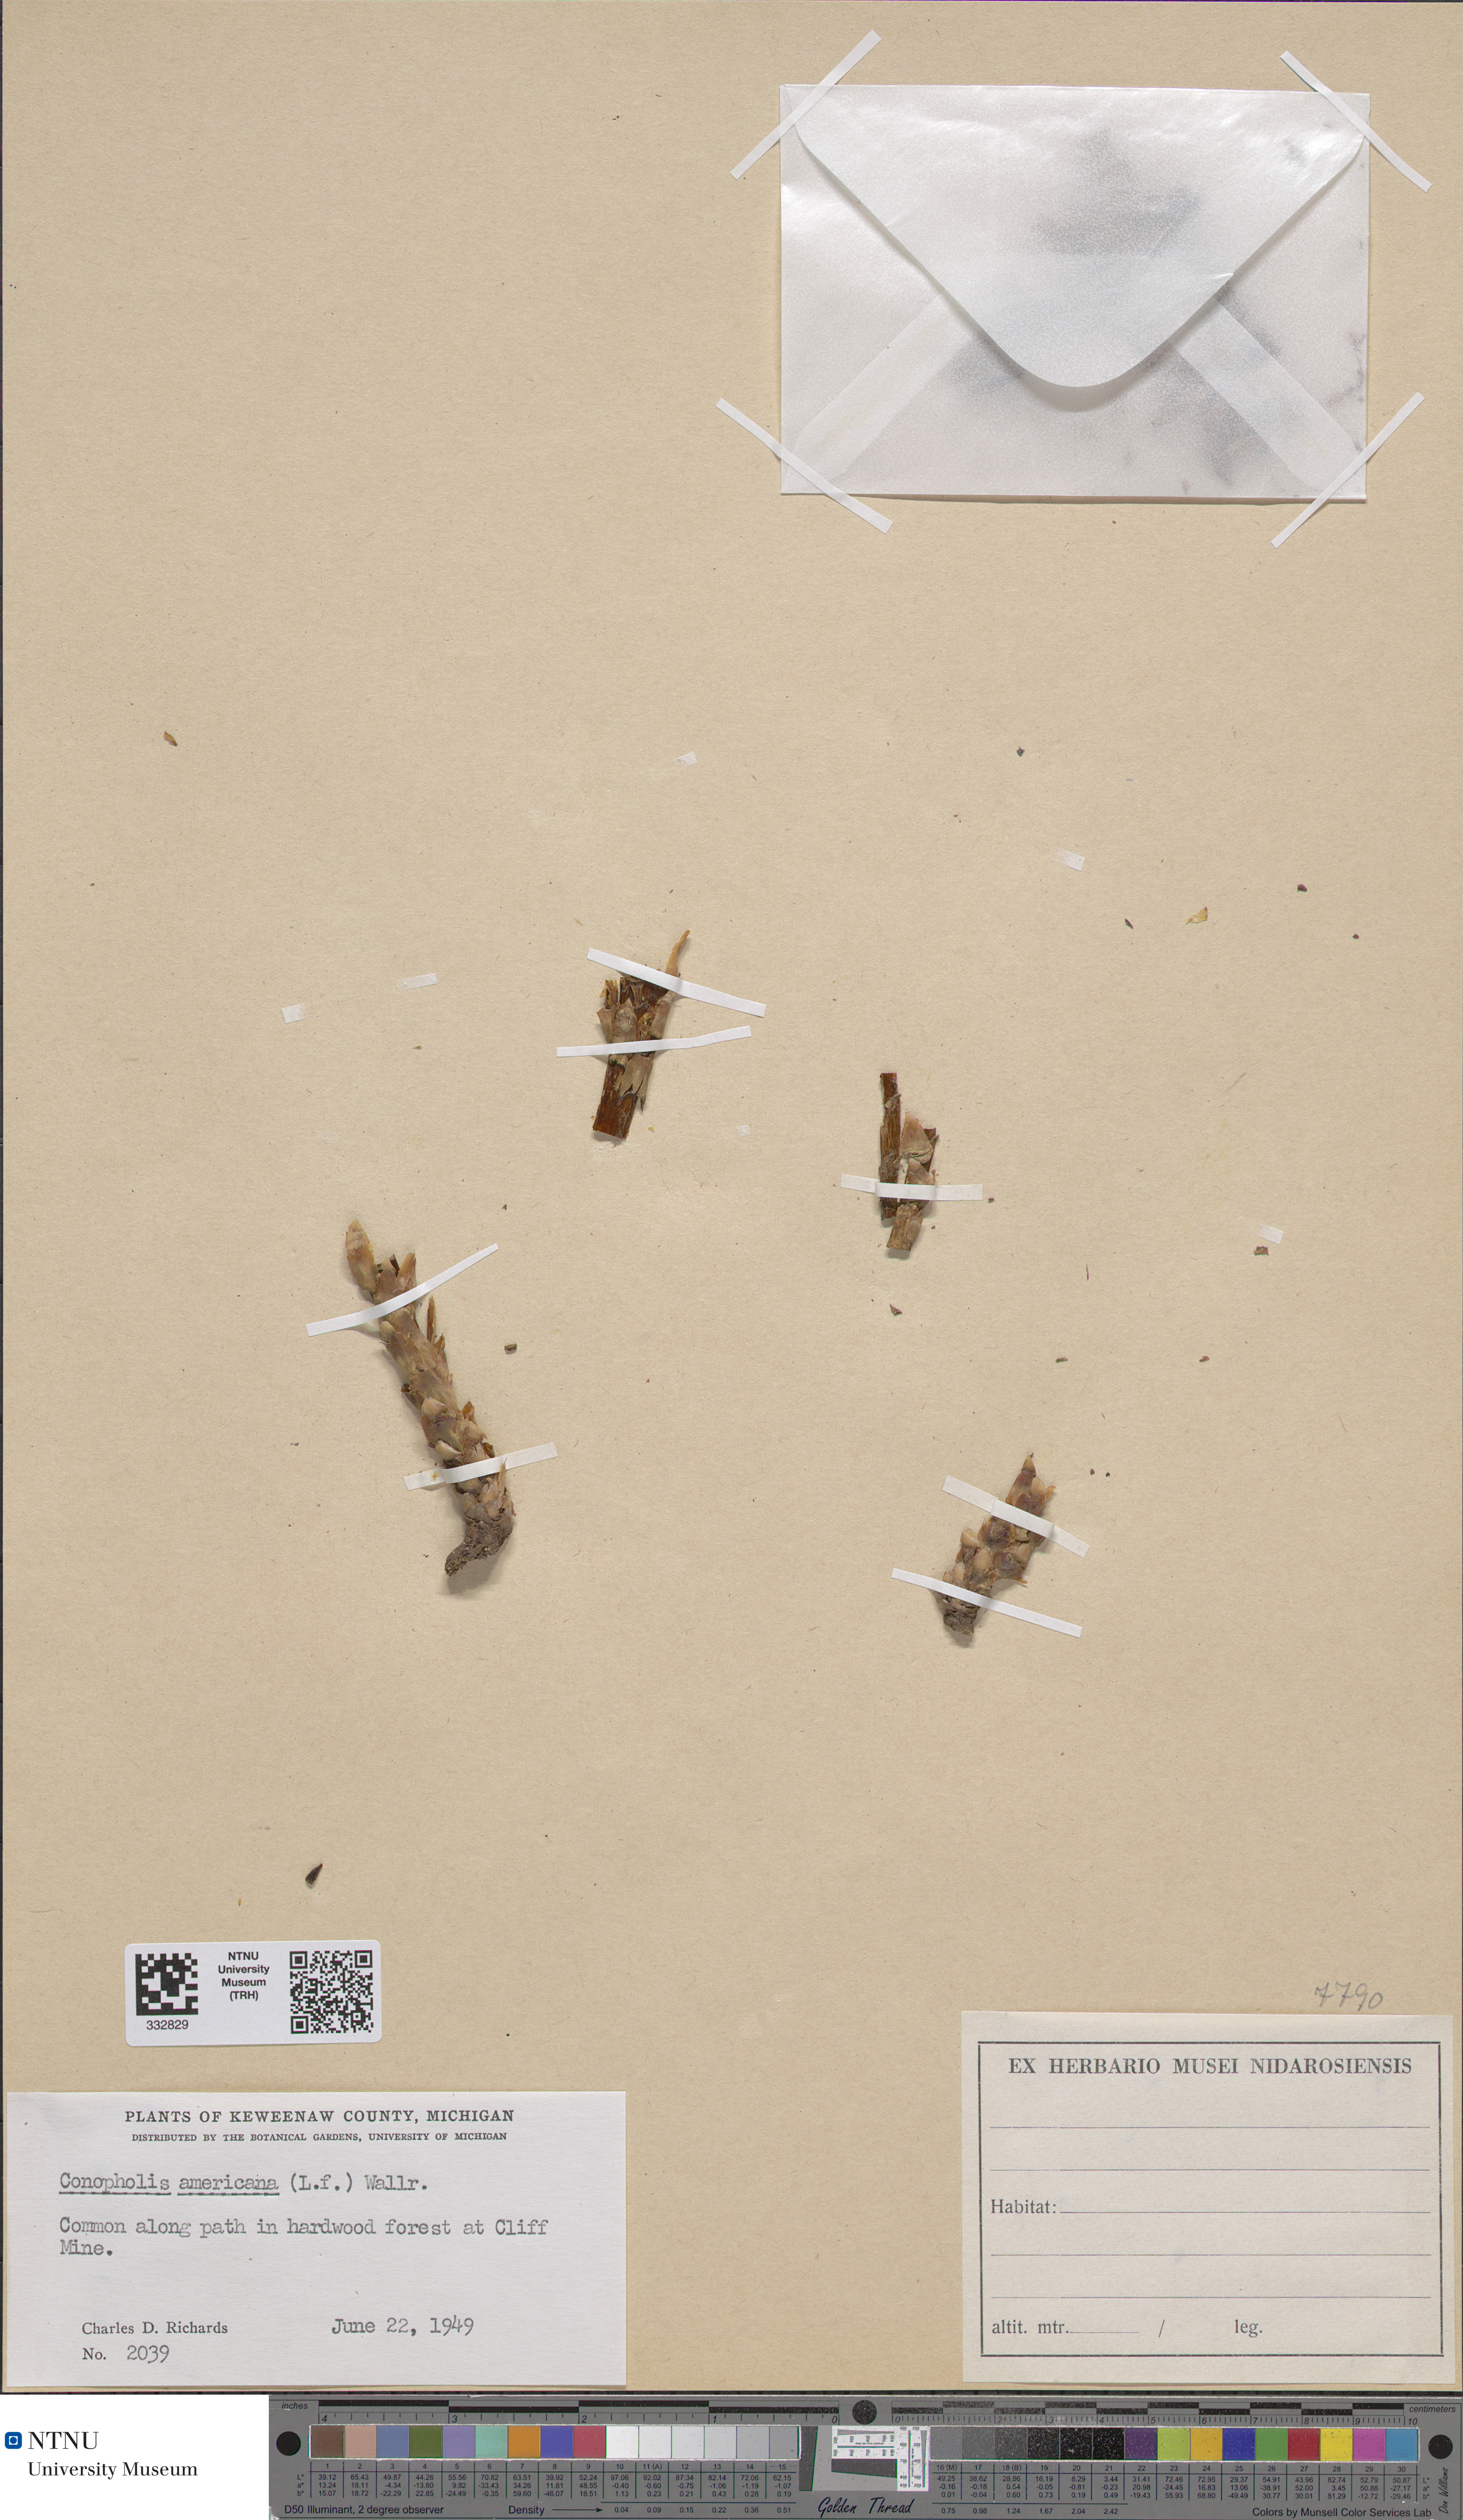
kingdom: Plantae
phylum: Tracheophyta
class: Magnoliopsida
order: Lamiales
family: Orobanchaceae
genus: Conopholis
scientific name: Conopholis americana
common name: American cancer-root
